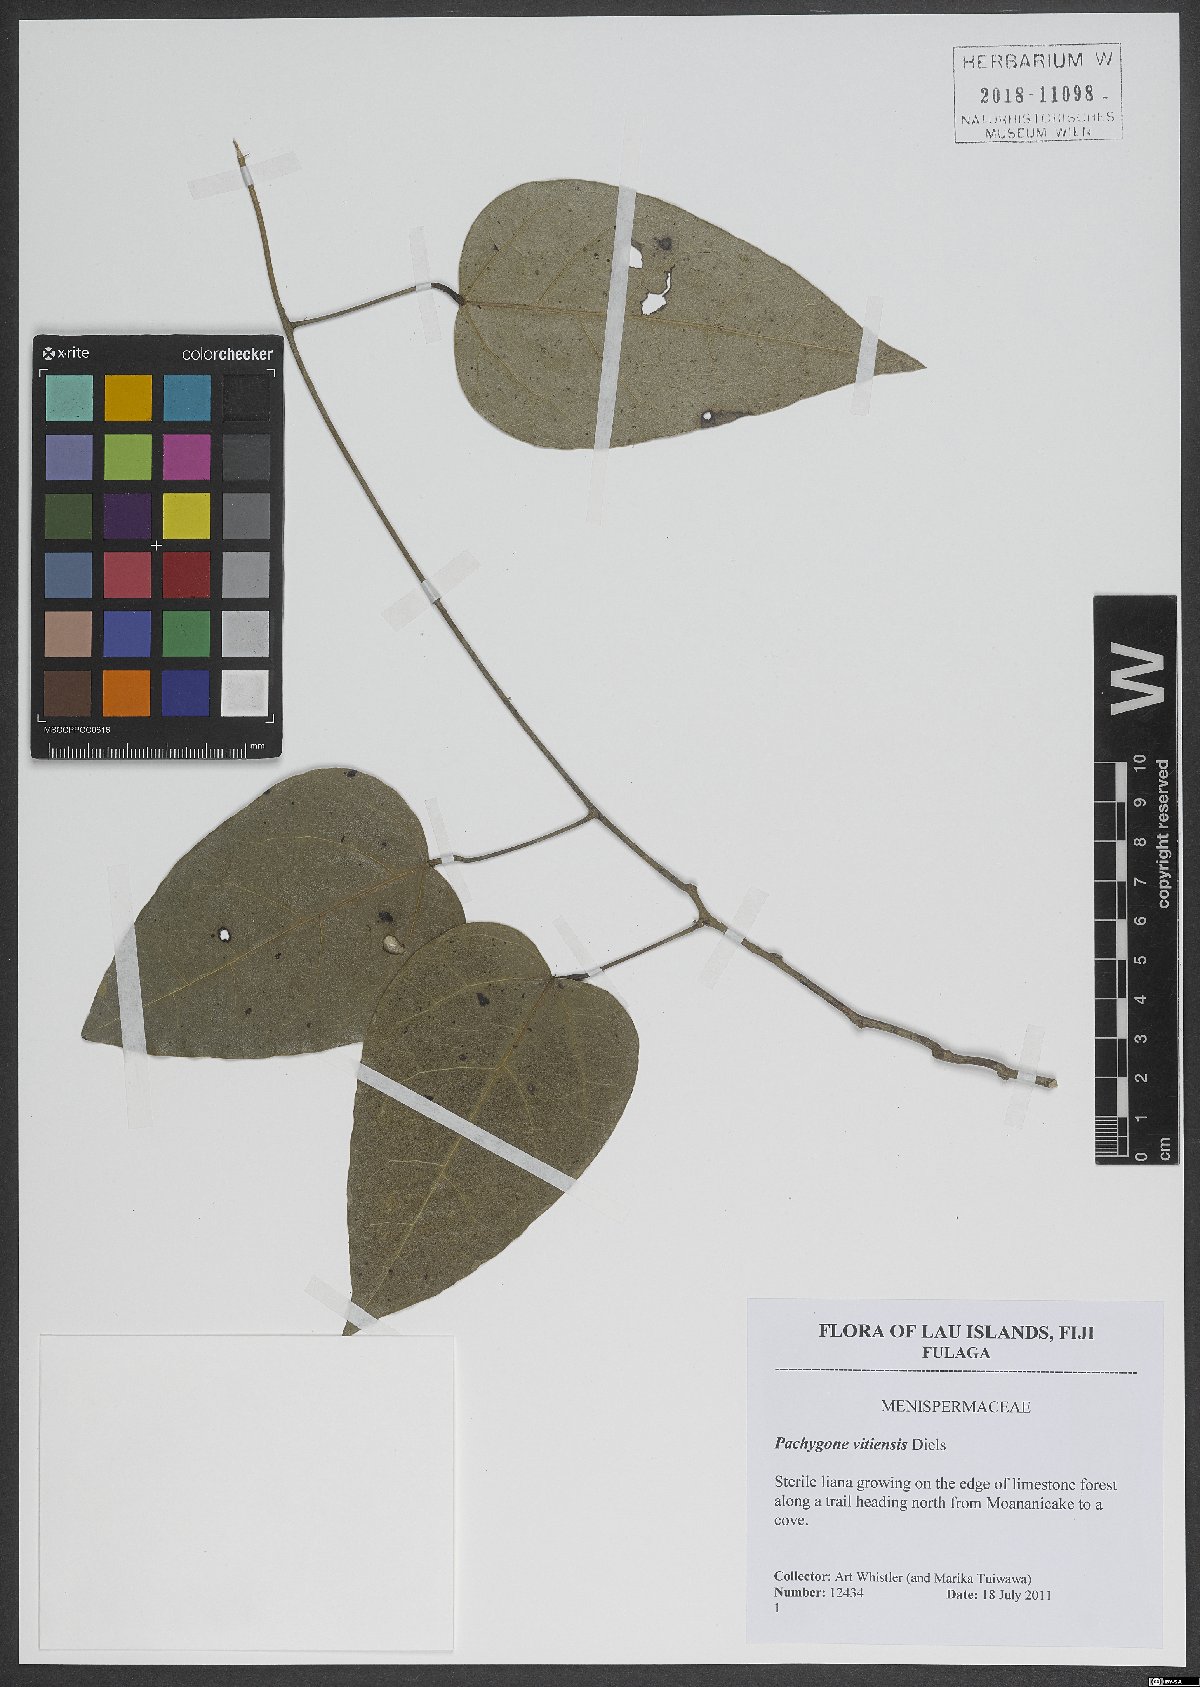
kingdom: Plantae
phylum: Tracheophyta
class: Magnoliopsida
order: Ranunculales
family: Menispermaceae
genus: Pachygone
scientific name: Pachygone vitiensis
